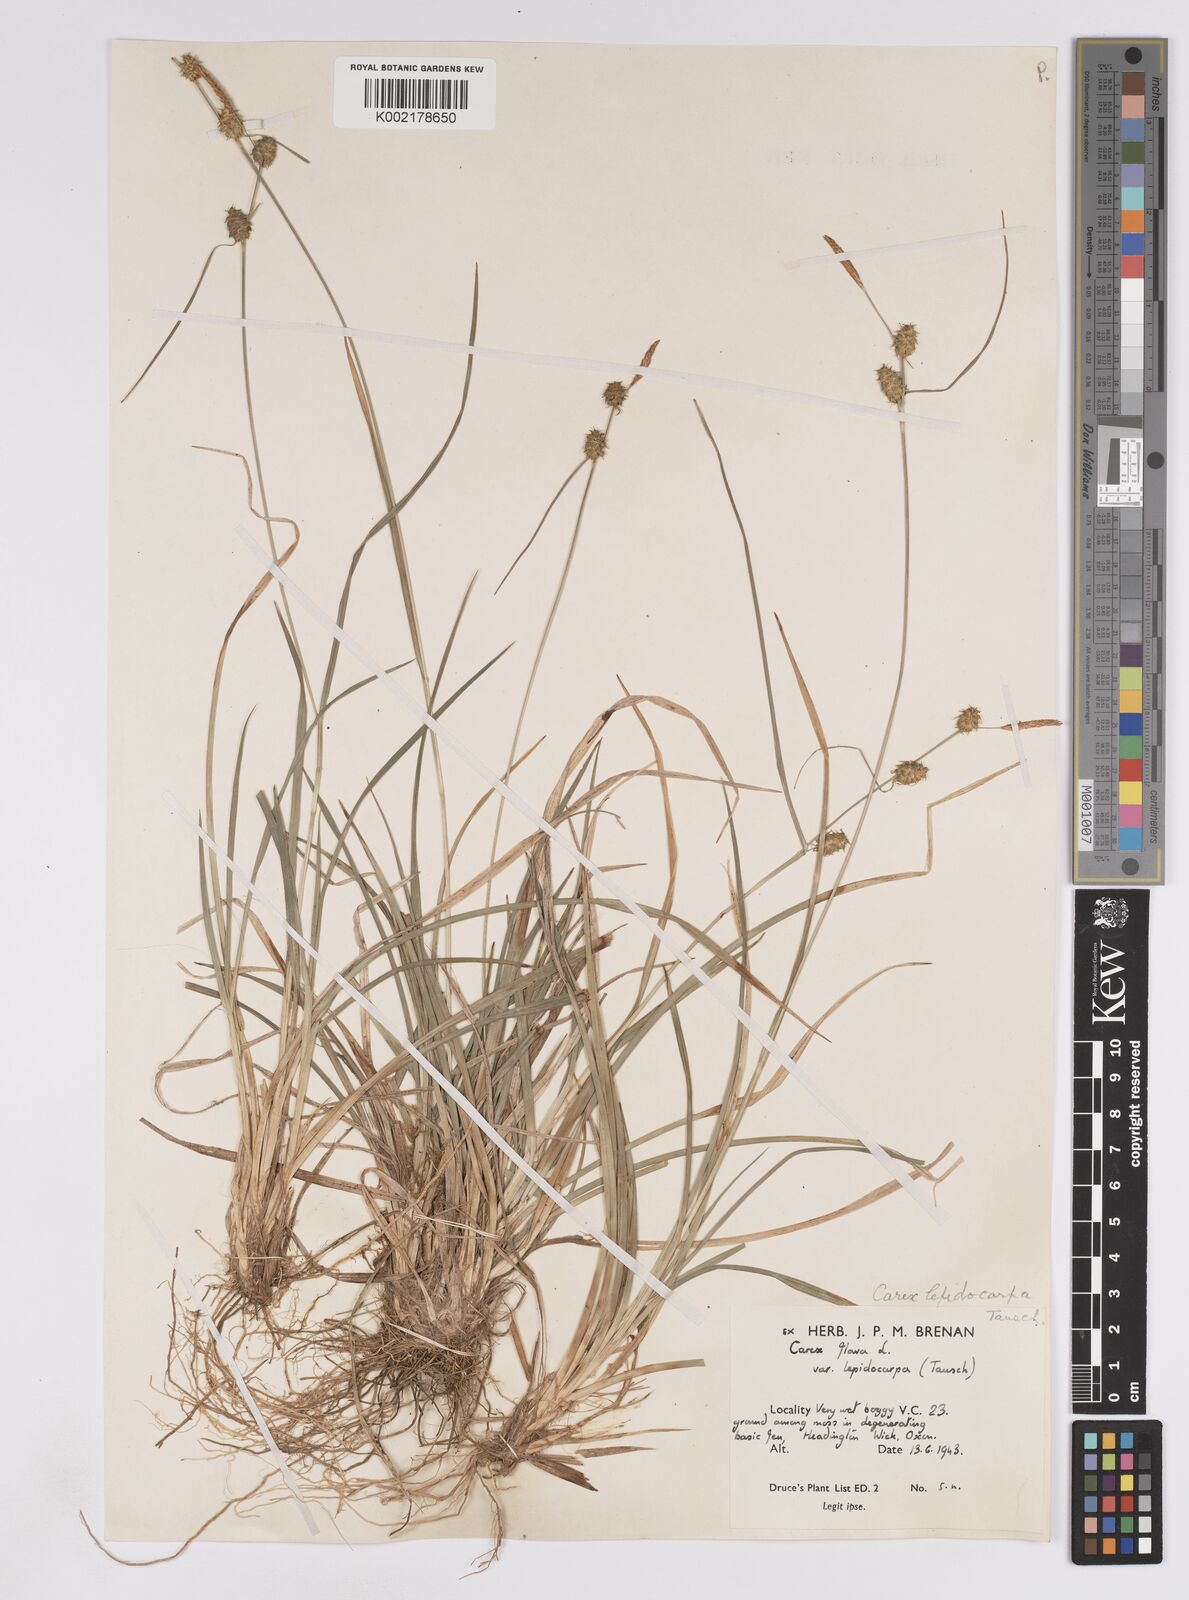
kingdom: Plantae
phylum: Tracheophyta
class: Liliopsida
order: Poales
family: Cyperaceae
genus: Carex
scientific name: Carex lepidocarpa
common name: Long-stalked yellow-sedge
